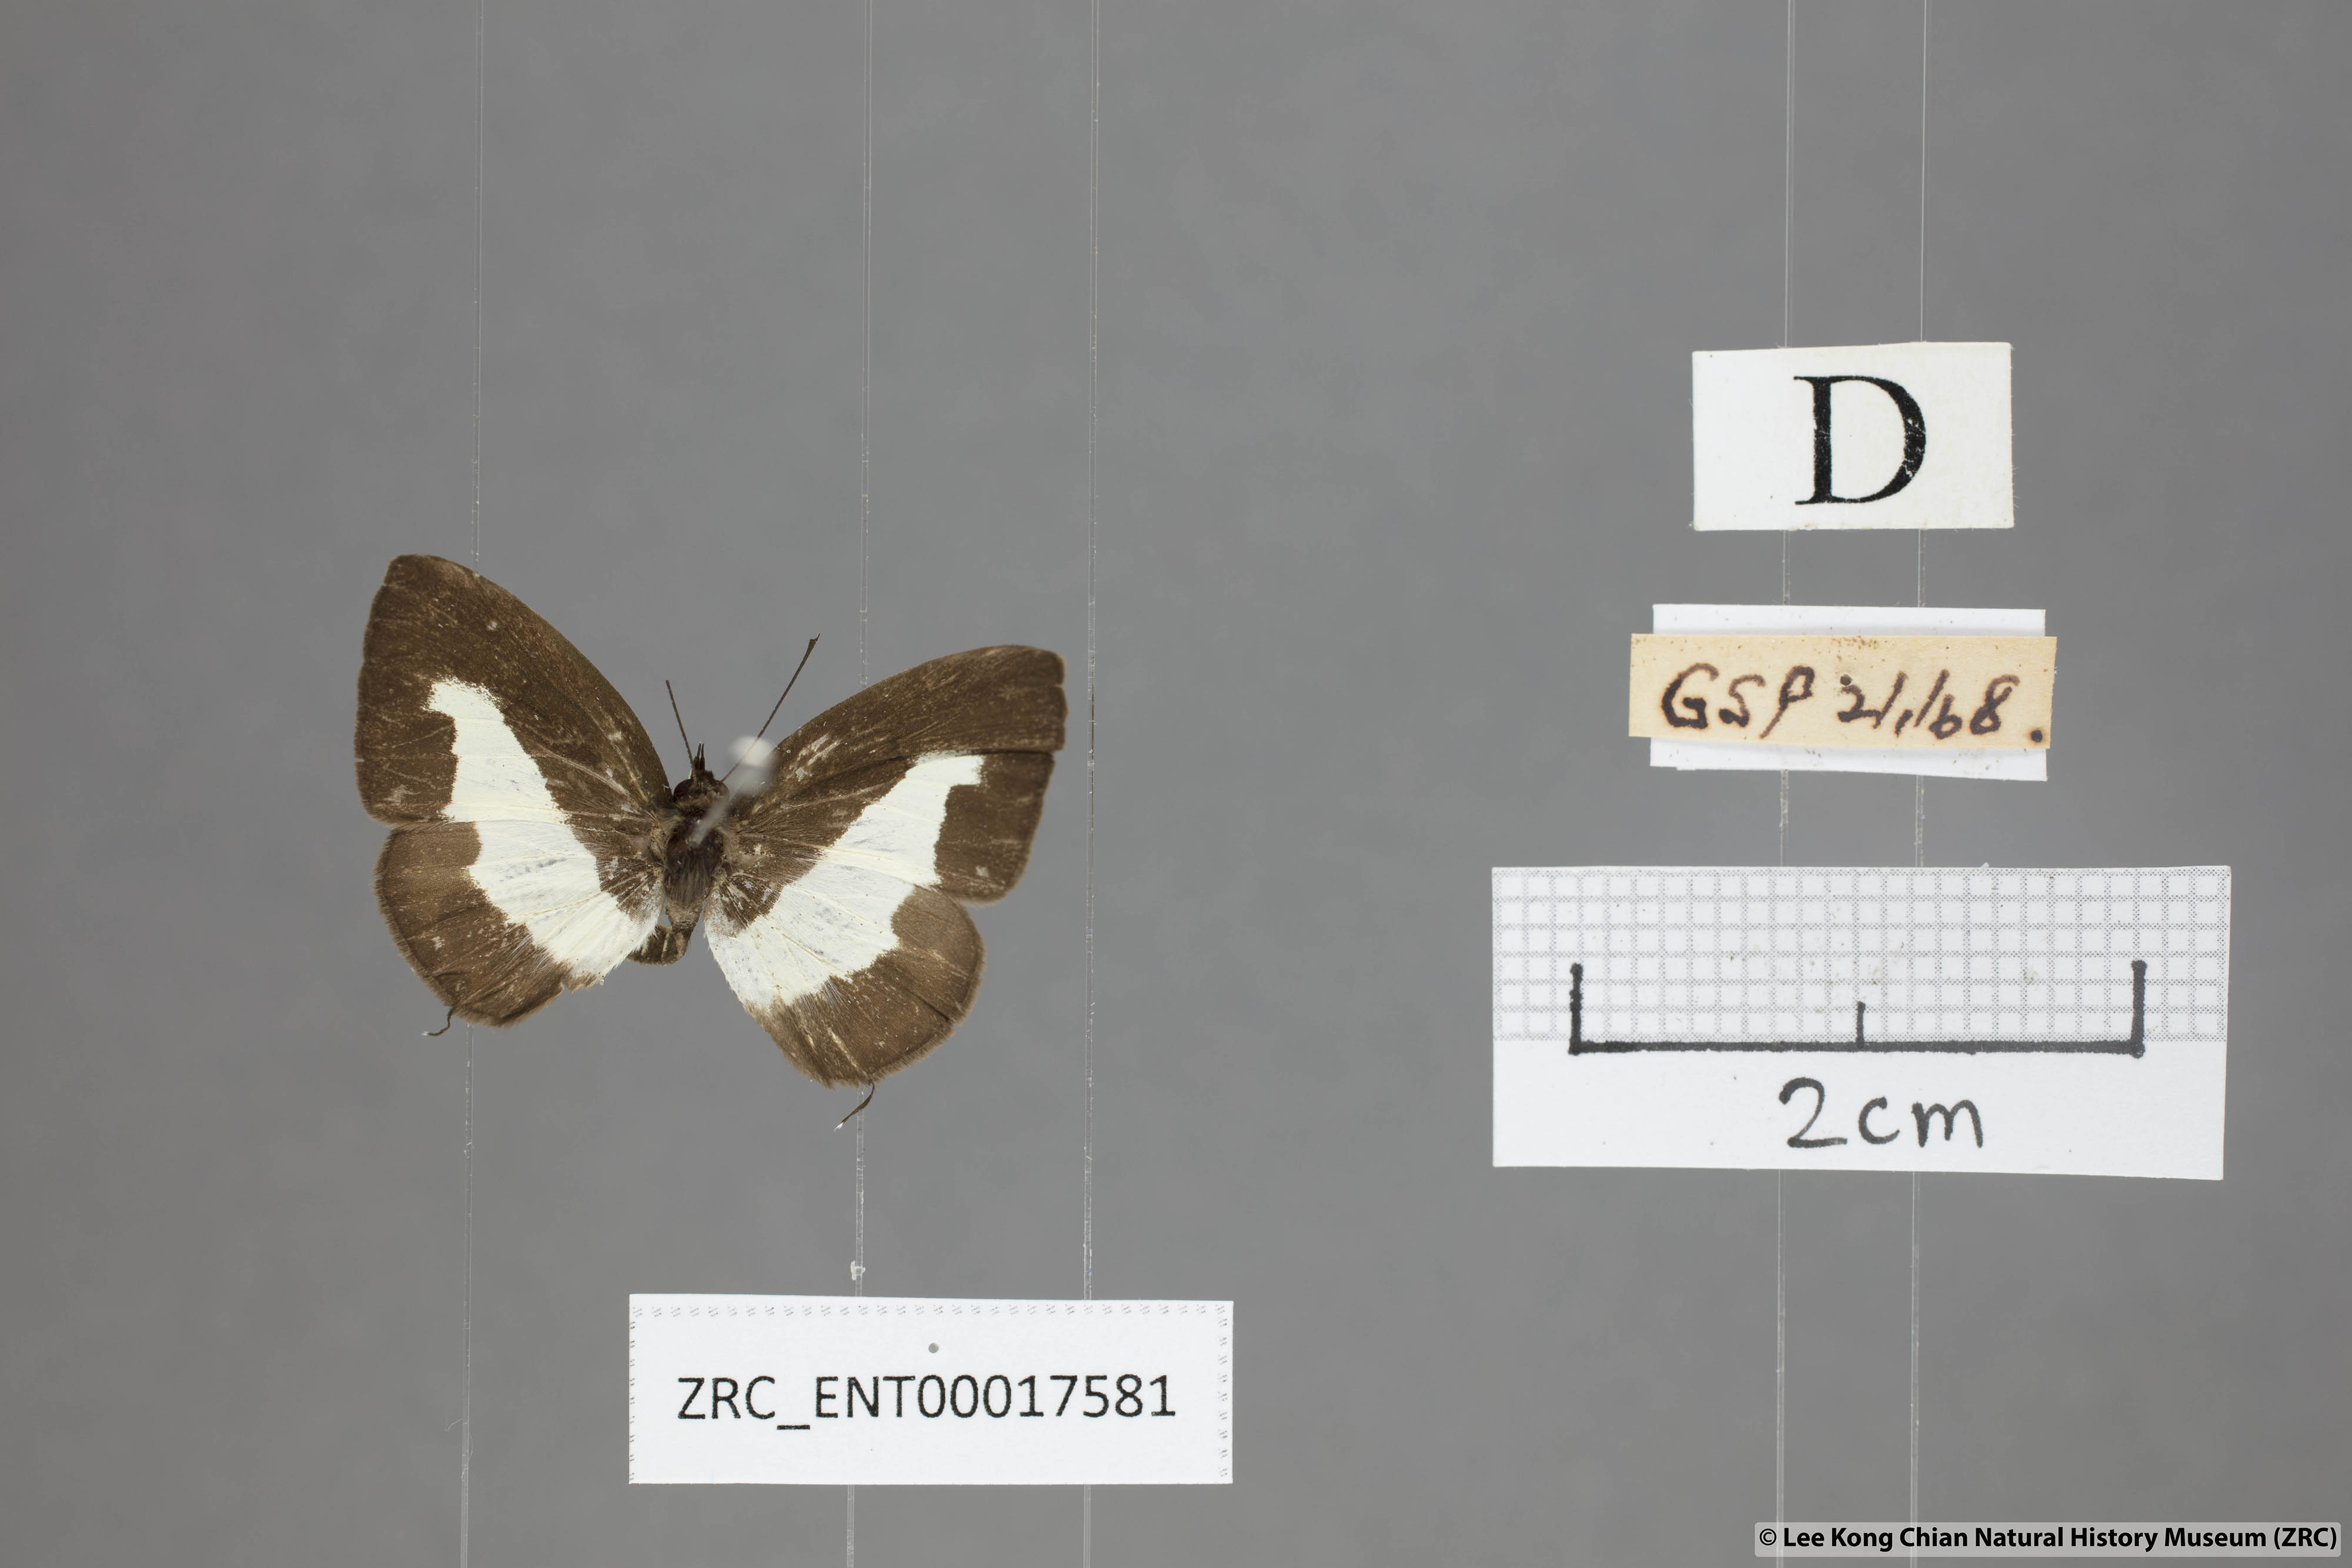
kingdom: Animalia
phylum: Arthropoda
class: Insecta
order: Lepidoptera
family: Lycaenidae
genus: Caleta
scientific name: Caleta elna
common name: Elbowed pierrot
